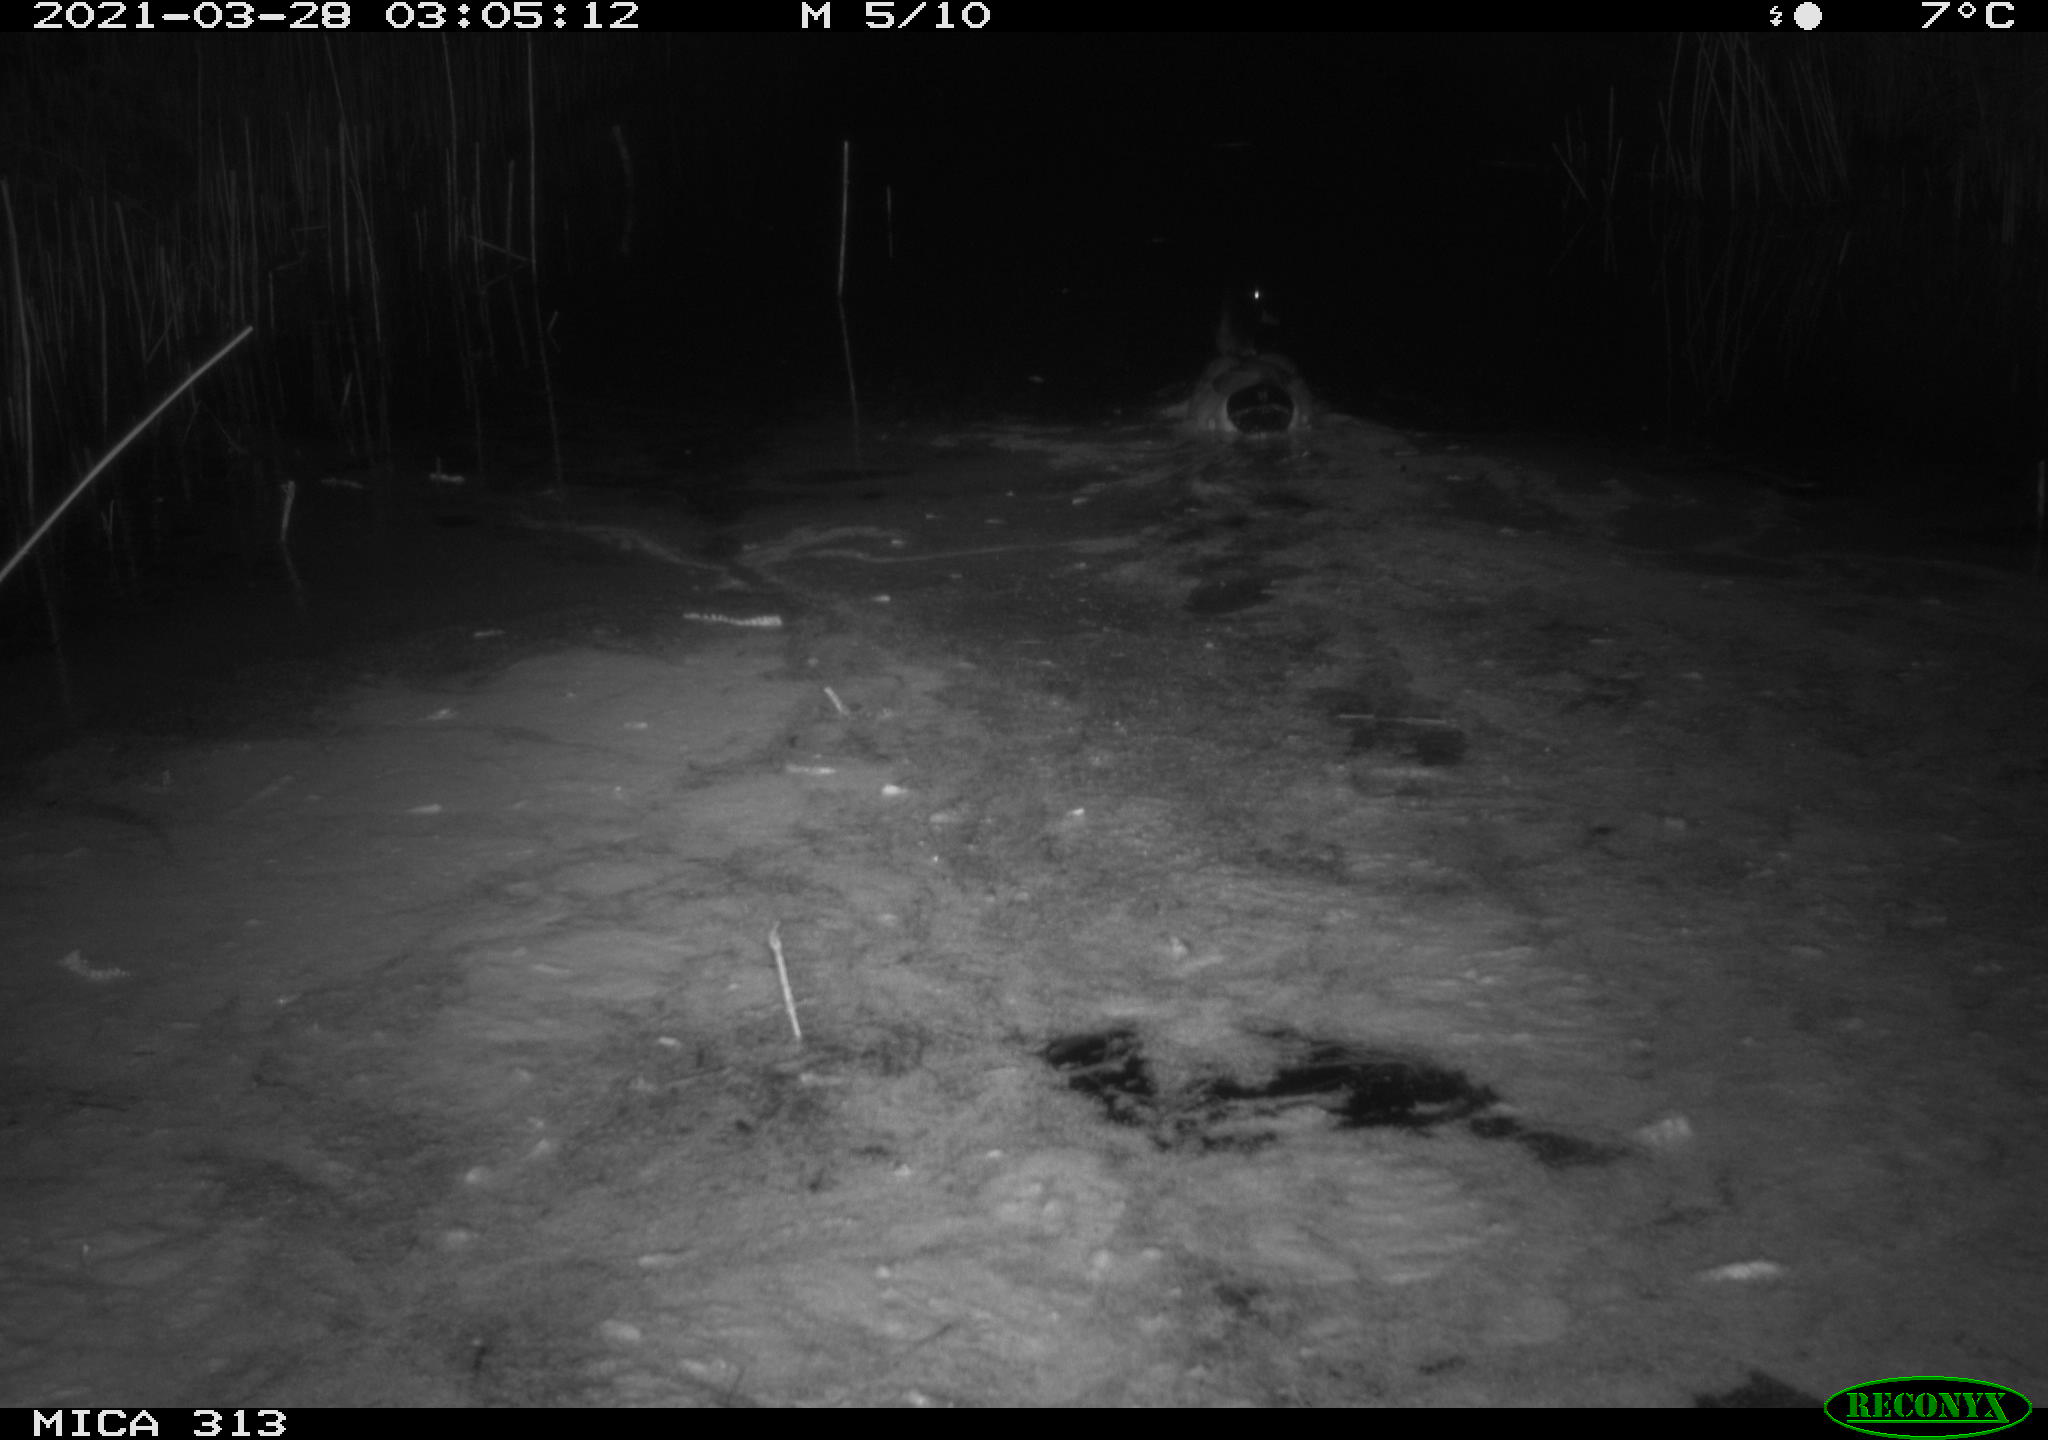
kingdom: Animalia
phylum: Chordata
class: Aves
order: Anseriformes
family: Anatidae
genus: Anas
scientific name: Anas platyrhynchos
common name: Mallard
